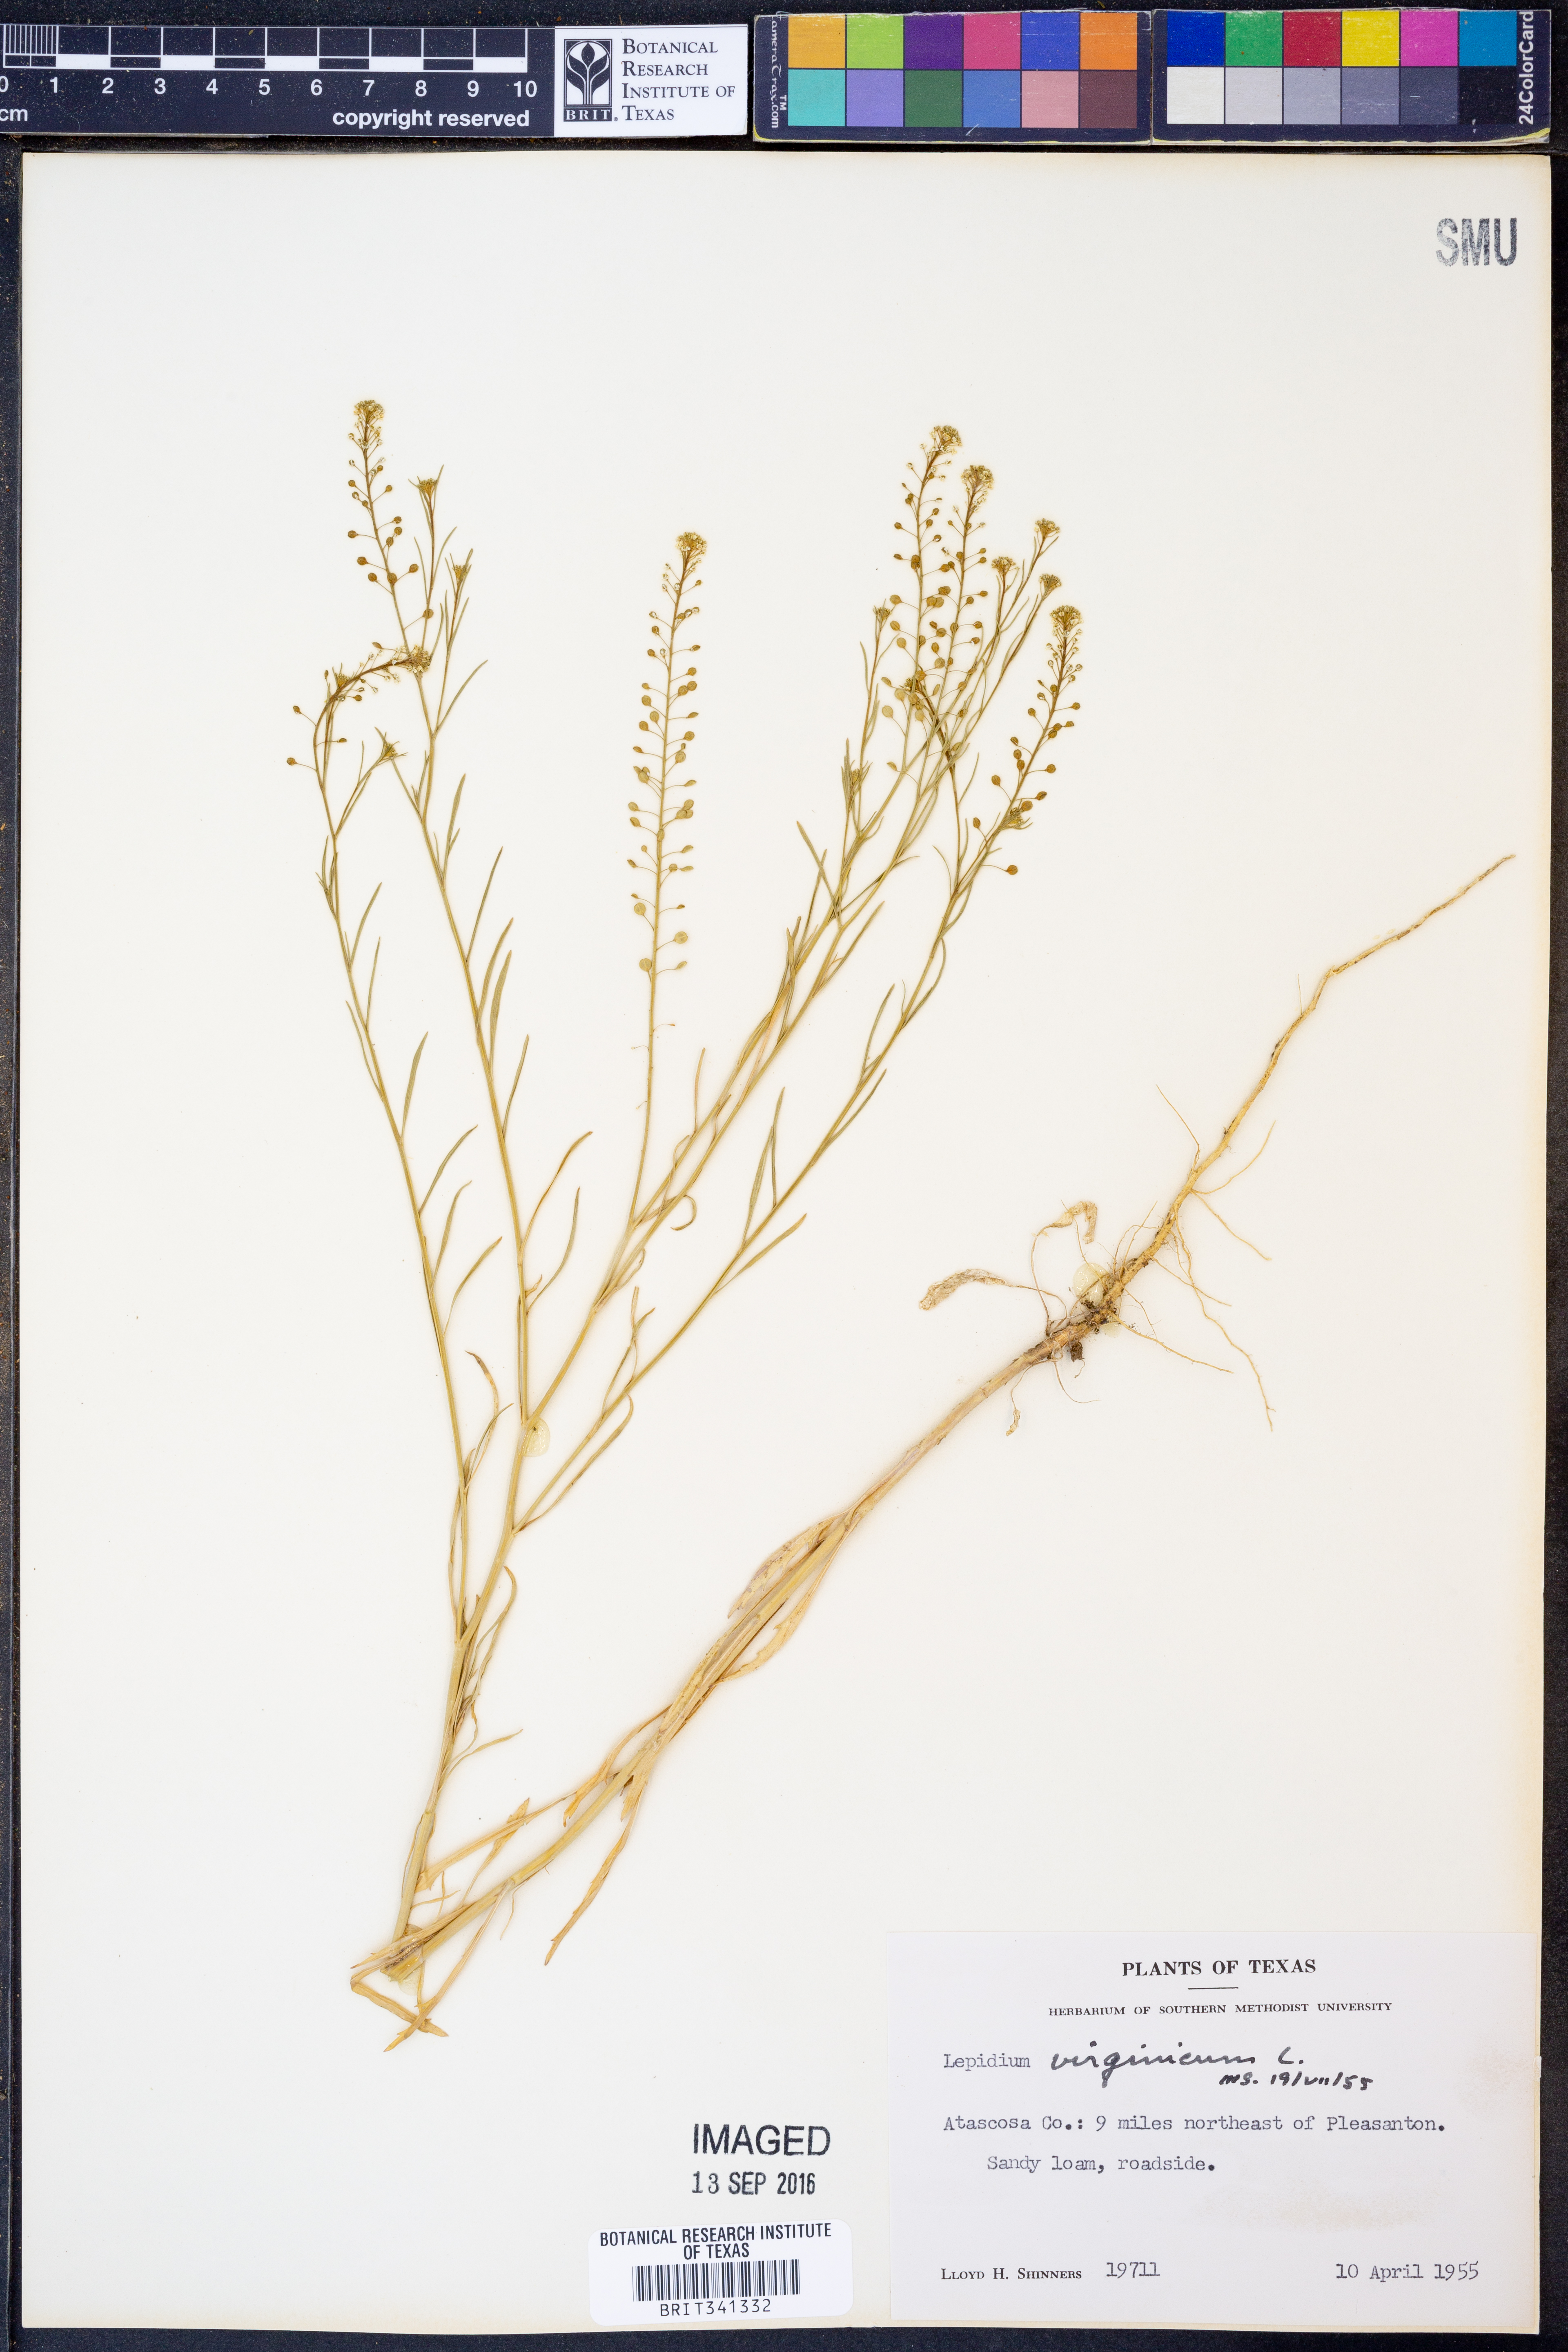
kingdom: Plantae
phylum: Tracheophyta
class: Magnoliopsida
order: Brassicales
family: Brassicaceae
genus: Lepidium
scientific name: Lepidium virginicum
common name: Least pepperwort
